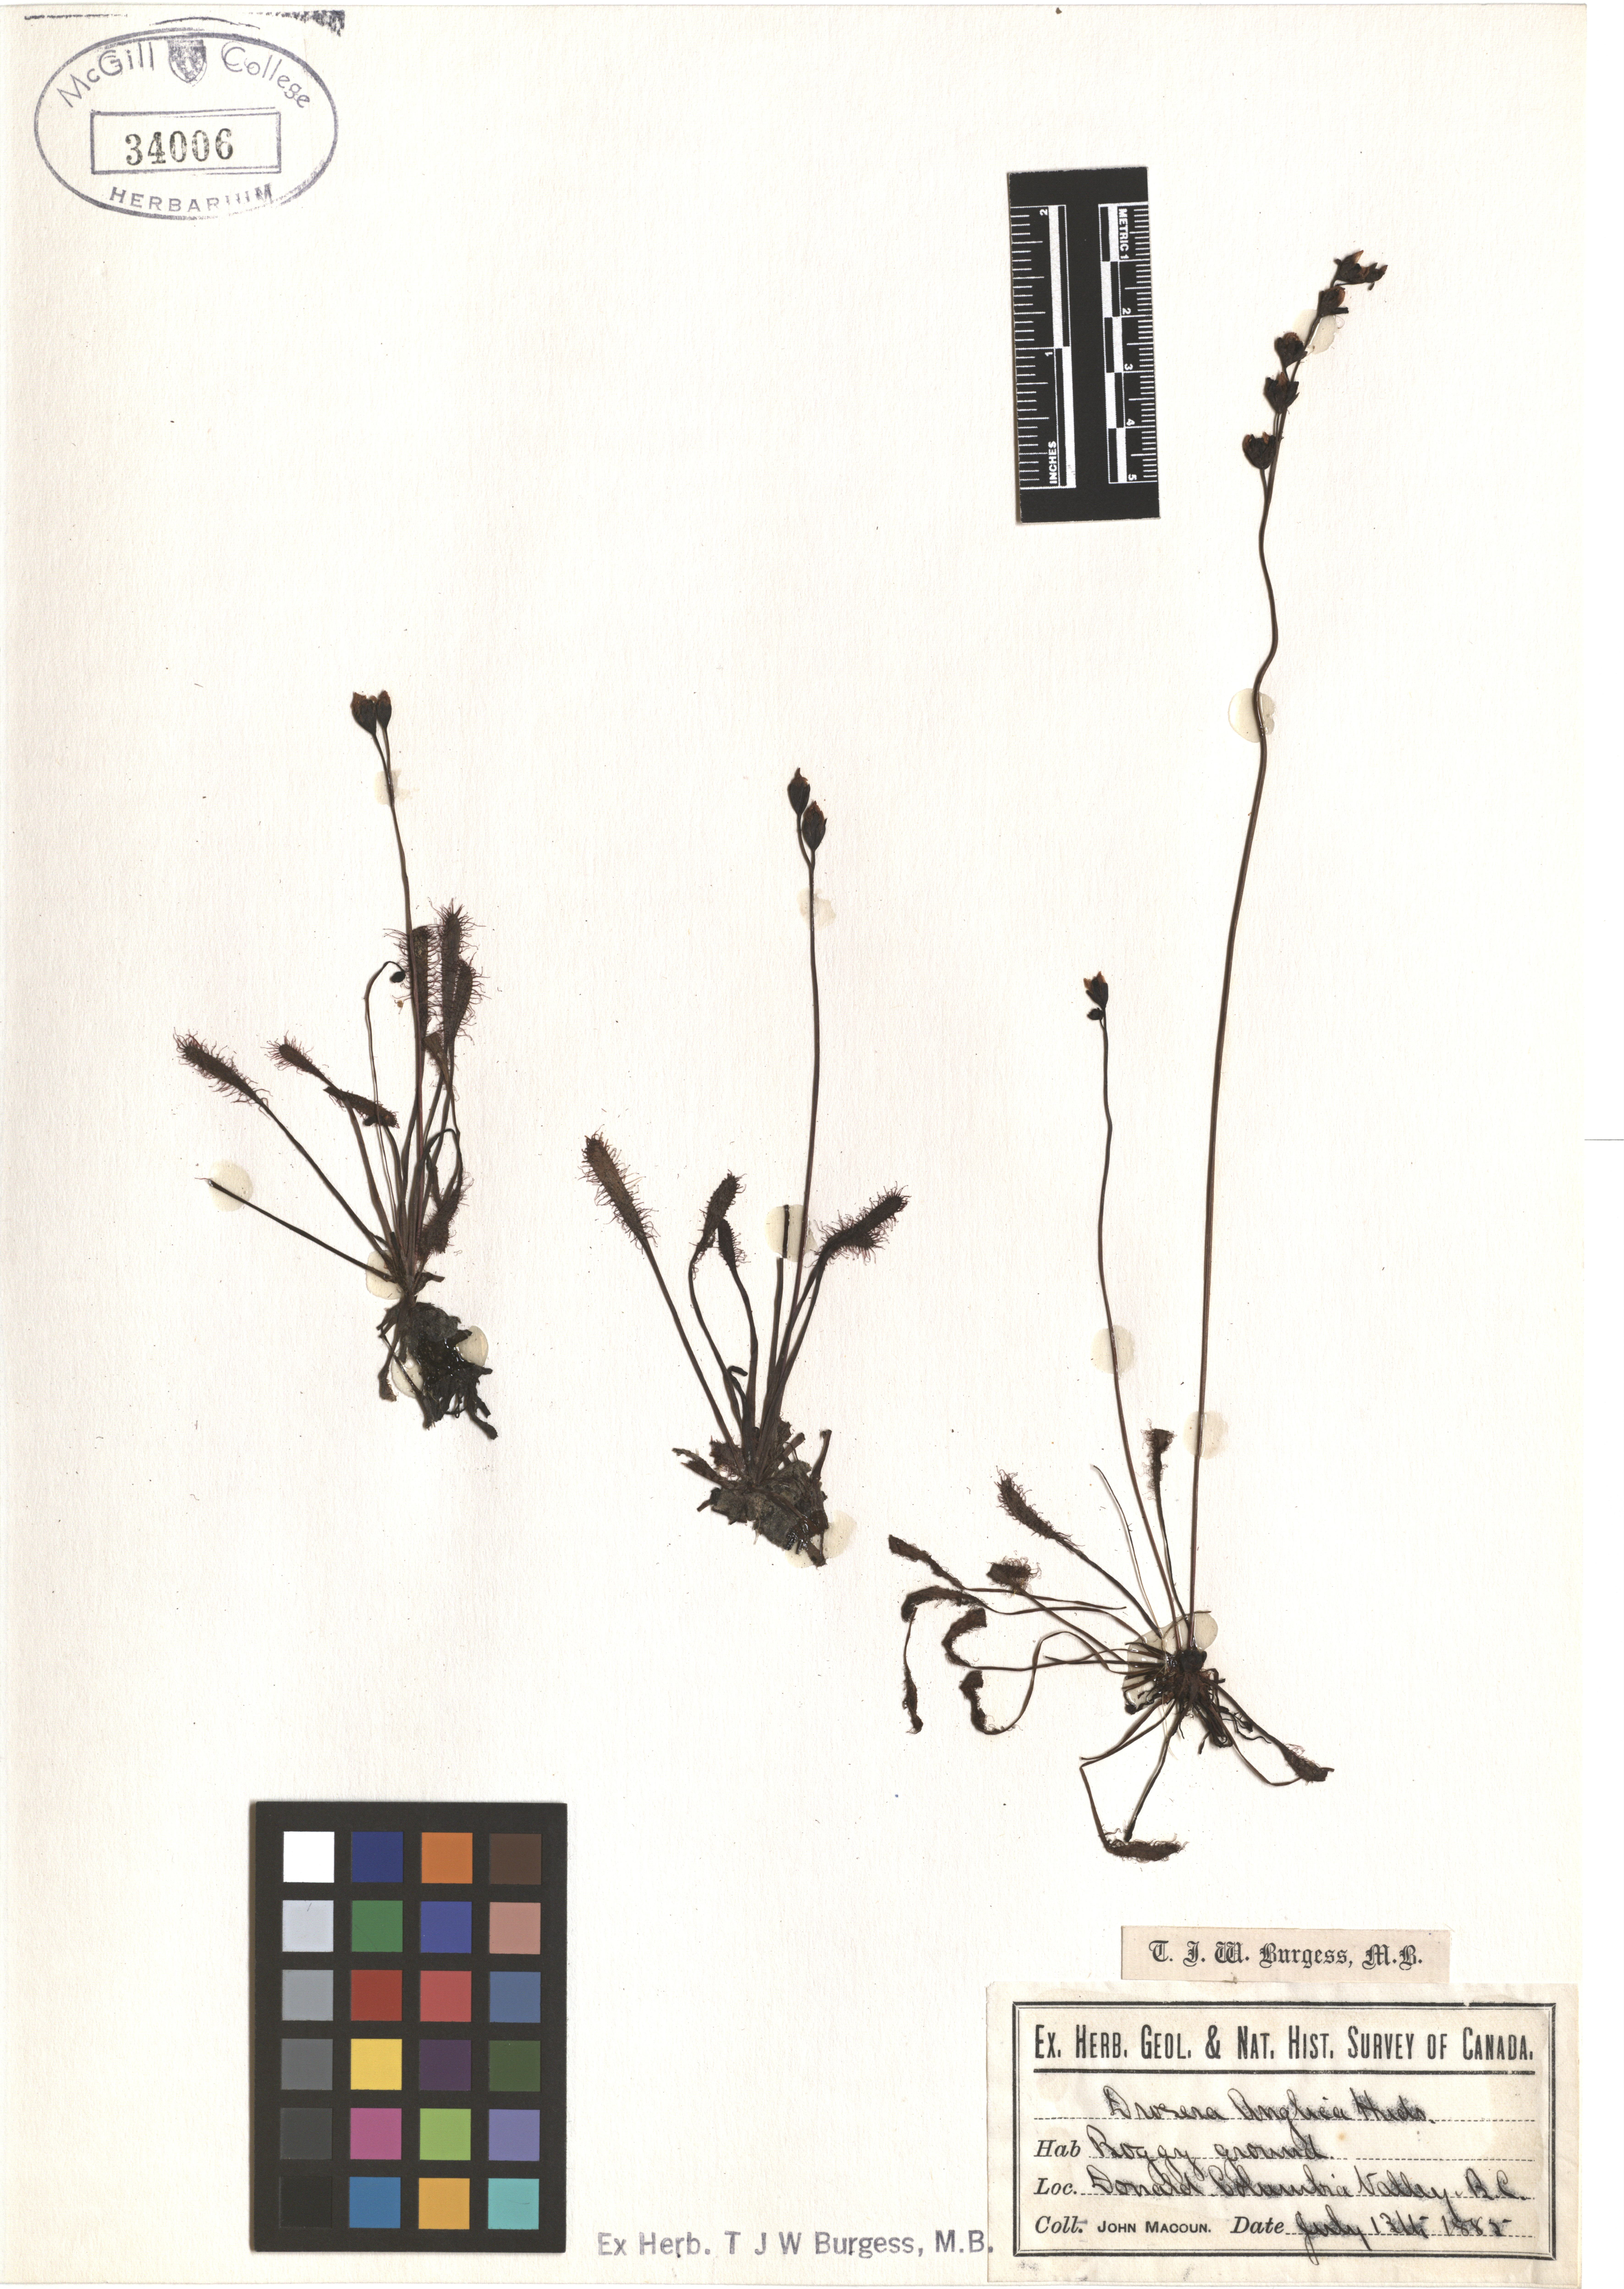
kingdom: Plantae
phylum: Tracheophyta
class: Magnoliopsida
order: Caryophyllales
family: Droseraceae
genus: Drosera
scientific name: Drosera anglica
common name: Great sundew
